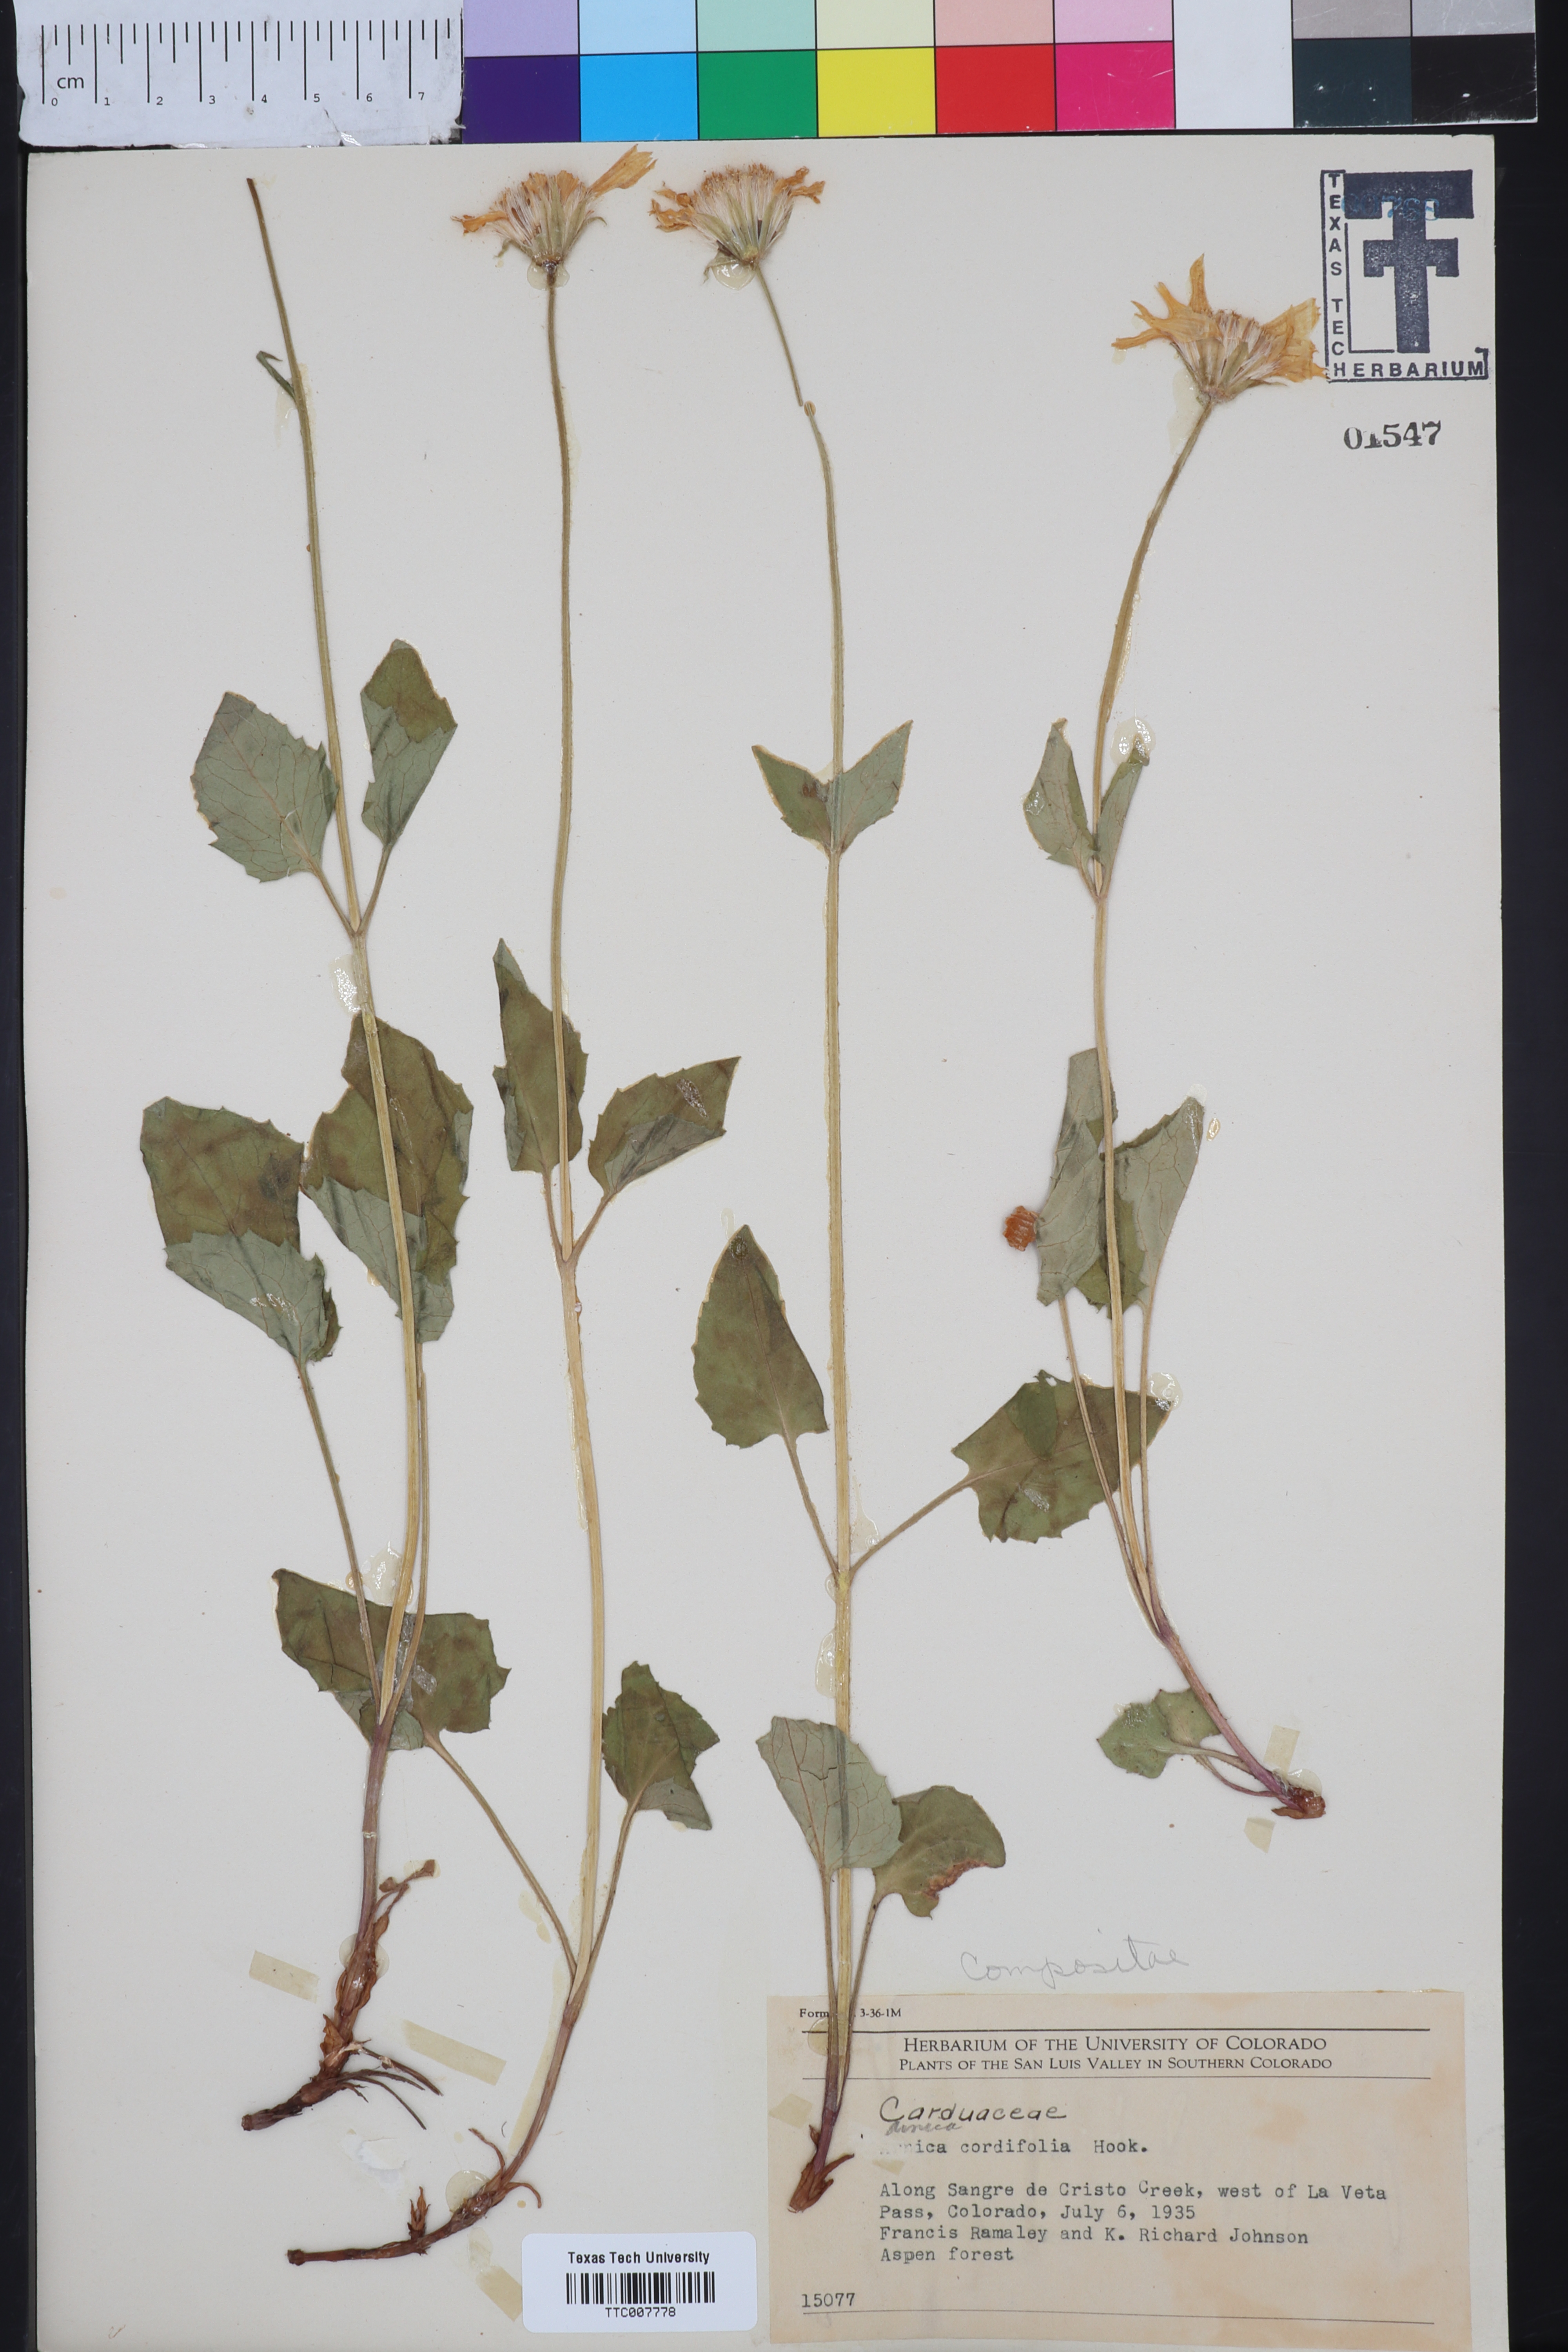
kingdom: Plantae
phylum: Tracheophyta
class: Magnoliopsida
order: Asterales
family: Asteraceae
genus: Arnica
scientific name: Arnica cordifolia
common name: Heart-leaf arnica
